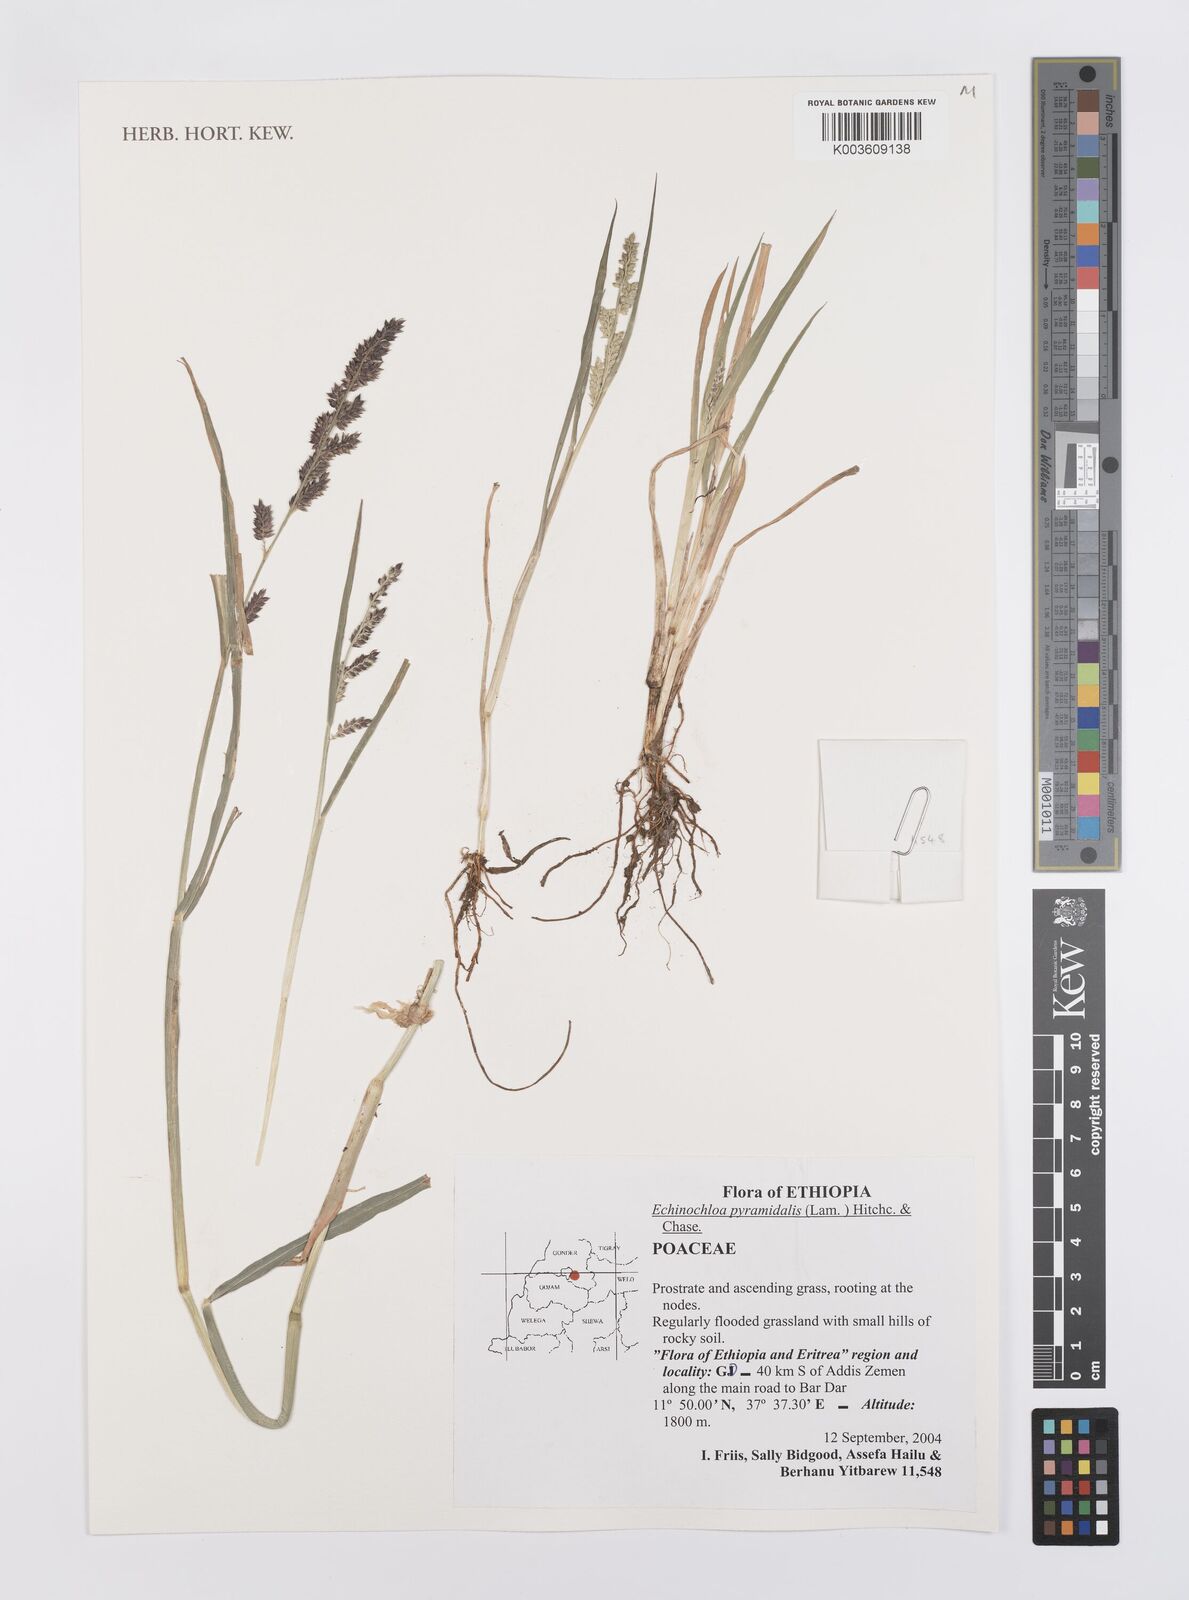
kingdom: Plantae
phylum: Tracheophyta
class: Liliopsida
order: Poales
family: Poaceae
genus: Echinochloa
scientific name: Echinochloa pyramidalis
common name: Antelope grass
